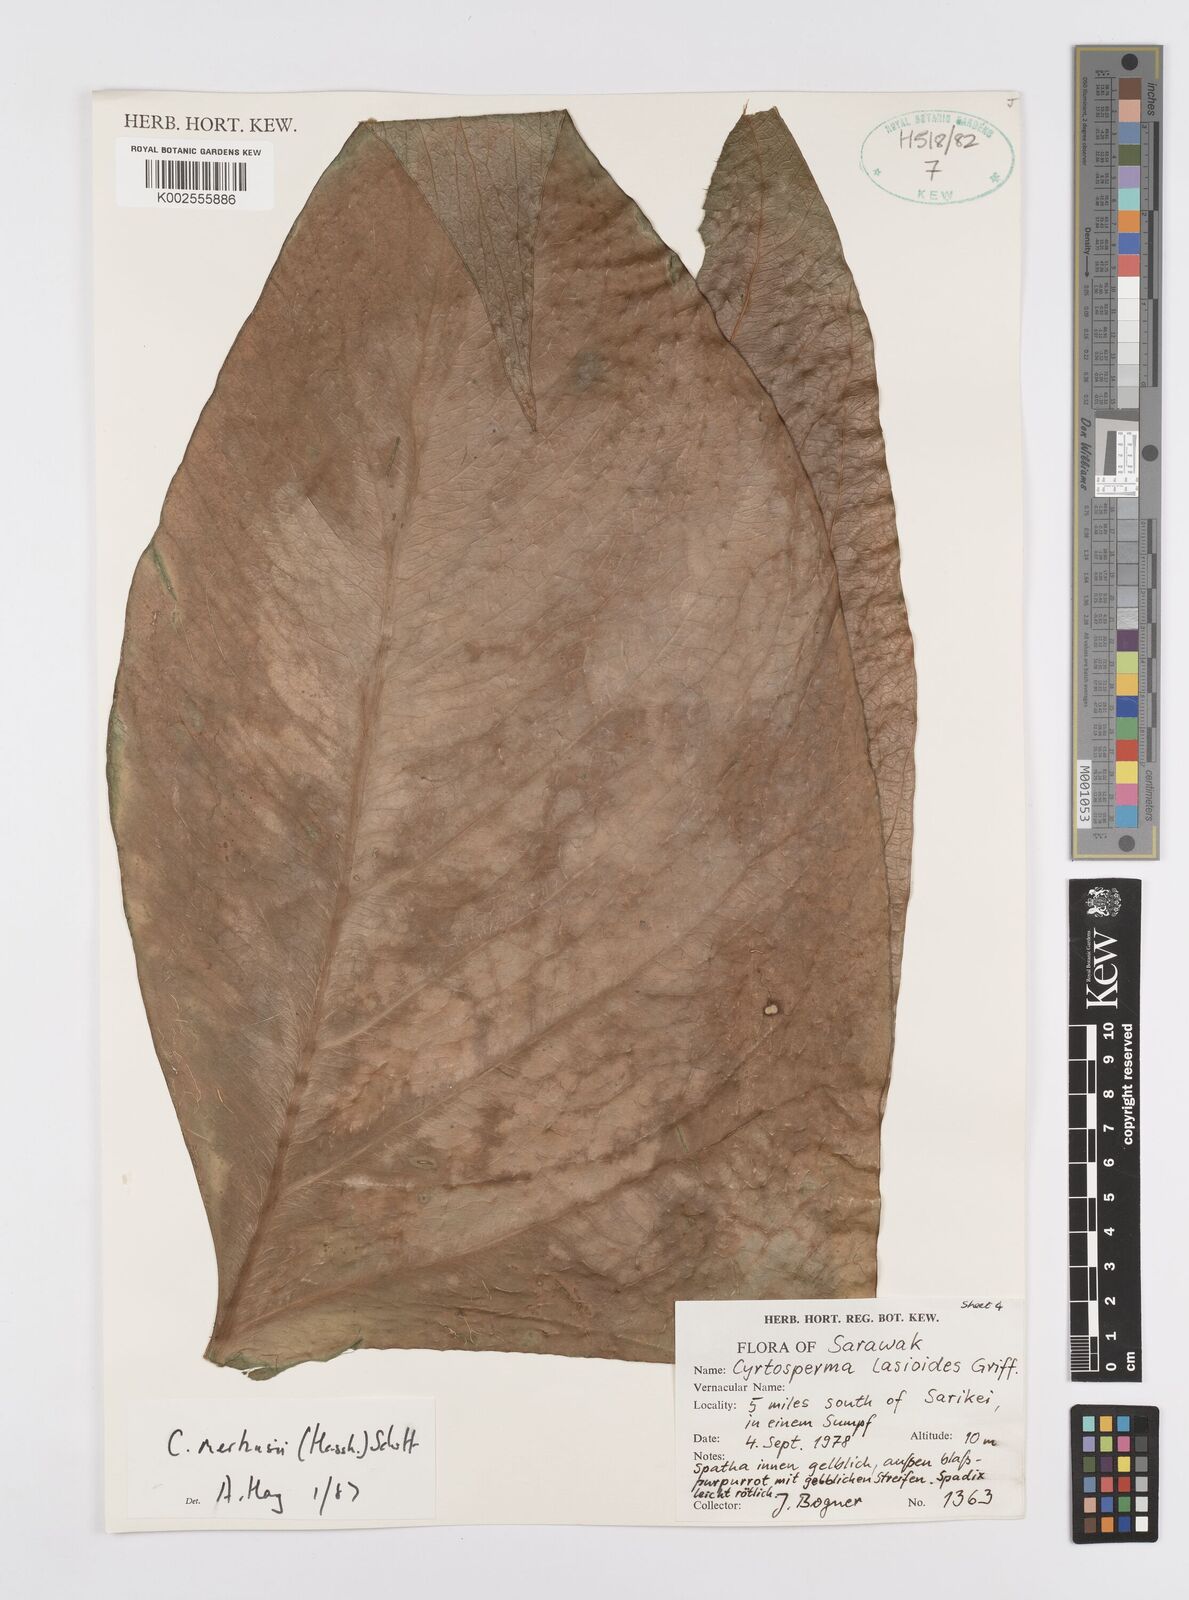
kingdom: Plantae
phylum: Tracheophyta
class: Liliopsida
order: Alismatales
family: Araceae
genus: Cyrtosperma
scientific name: Cyrtosperma merkusii
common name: Giant swamp-taro
